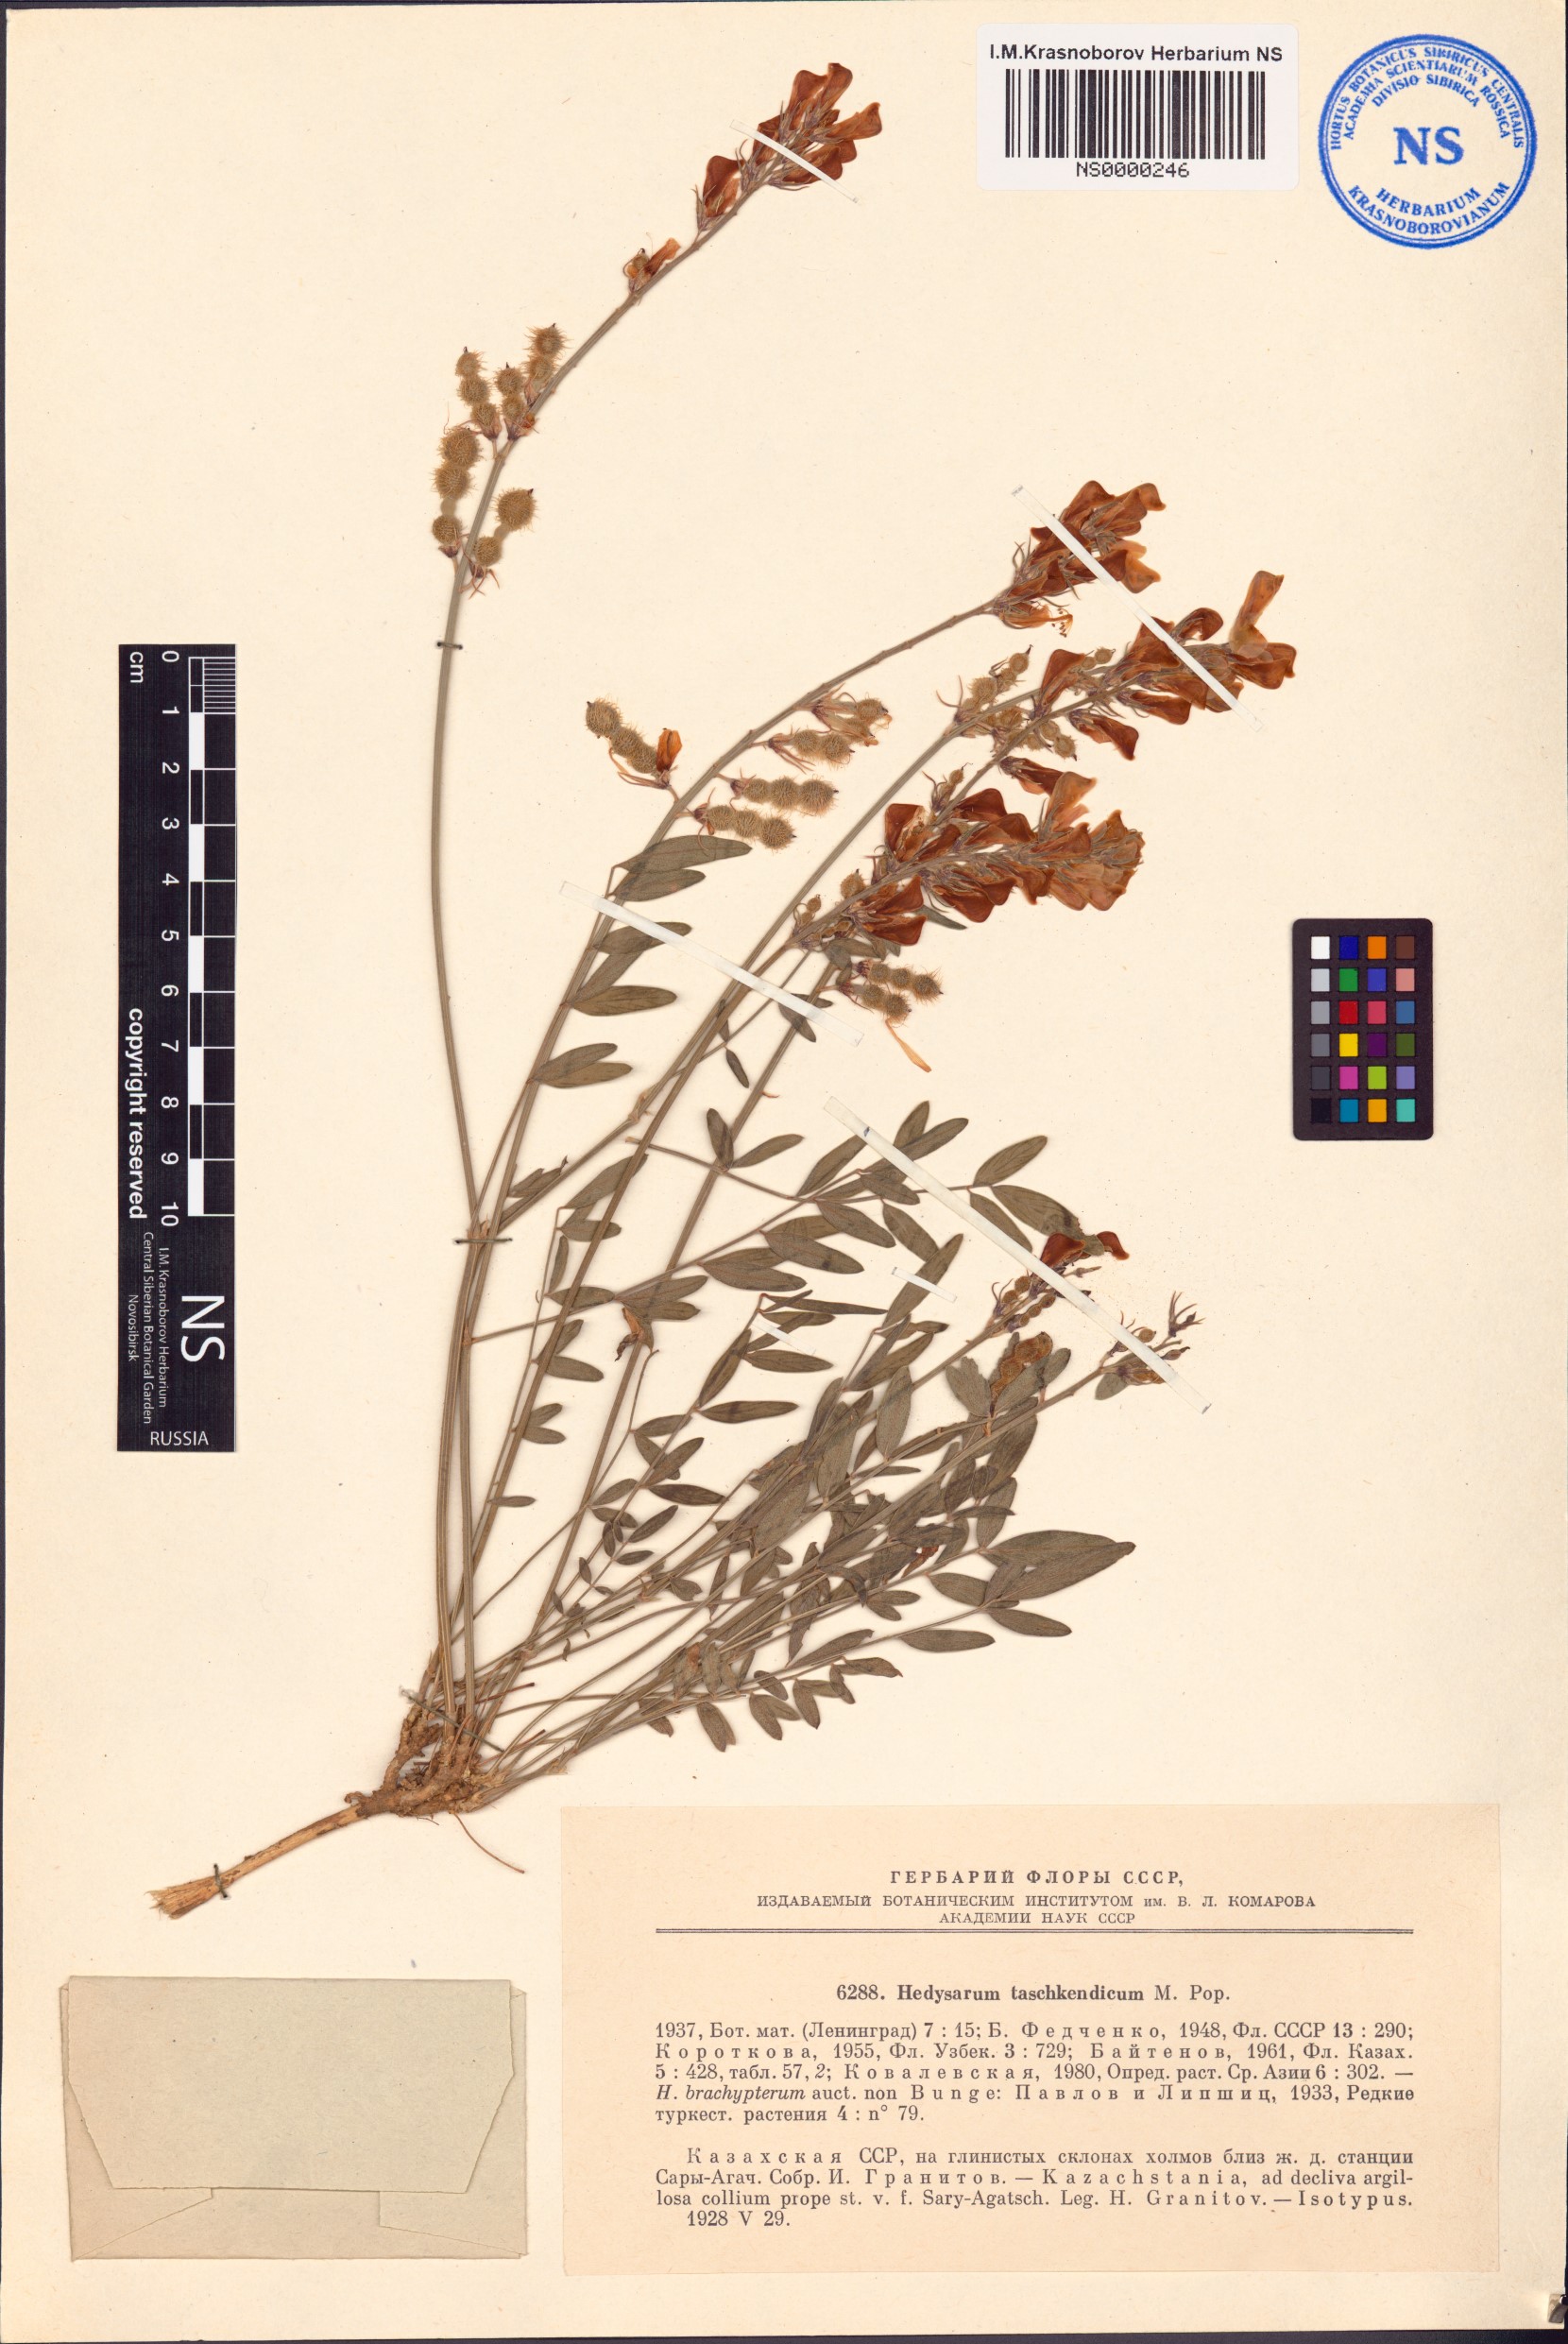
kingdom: Plantae
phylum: Tracheophyta
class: Magnoliopsida
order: Fabales
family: Fabaceae
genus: Hedysarum
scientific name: Hedysarum taschkendicum
